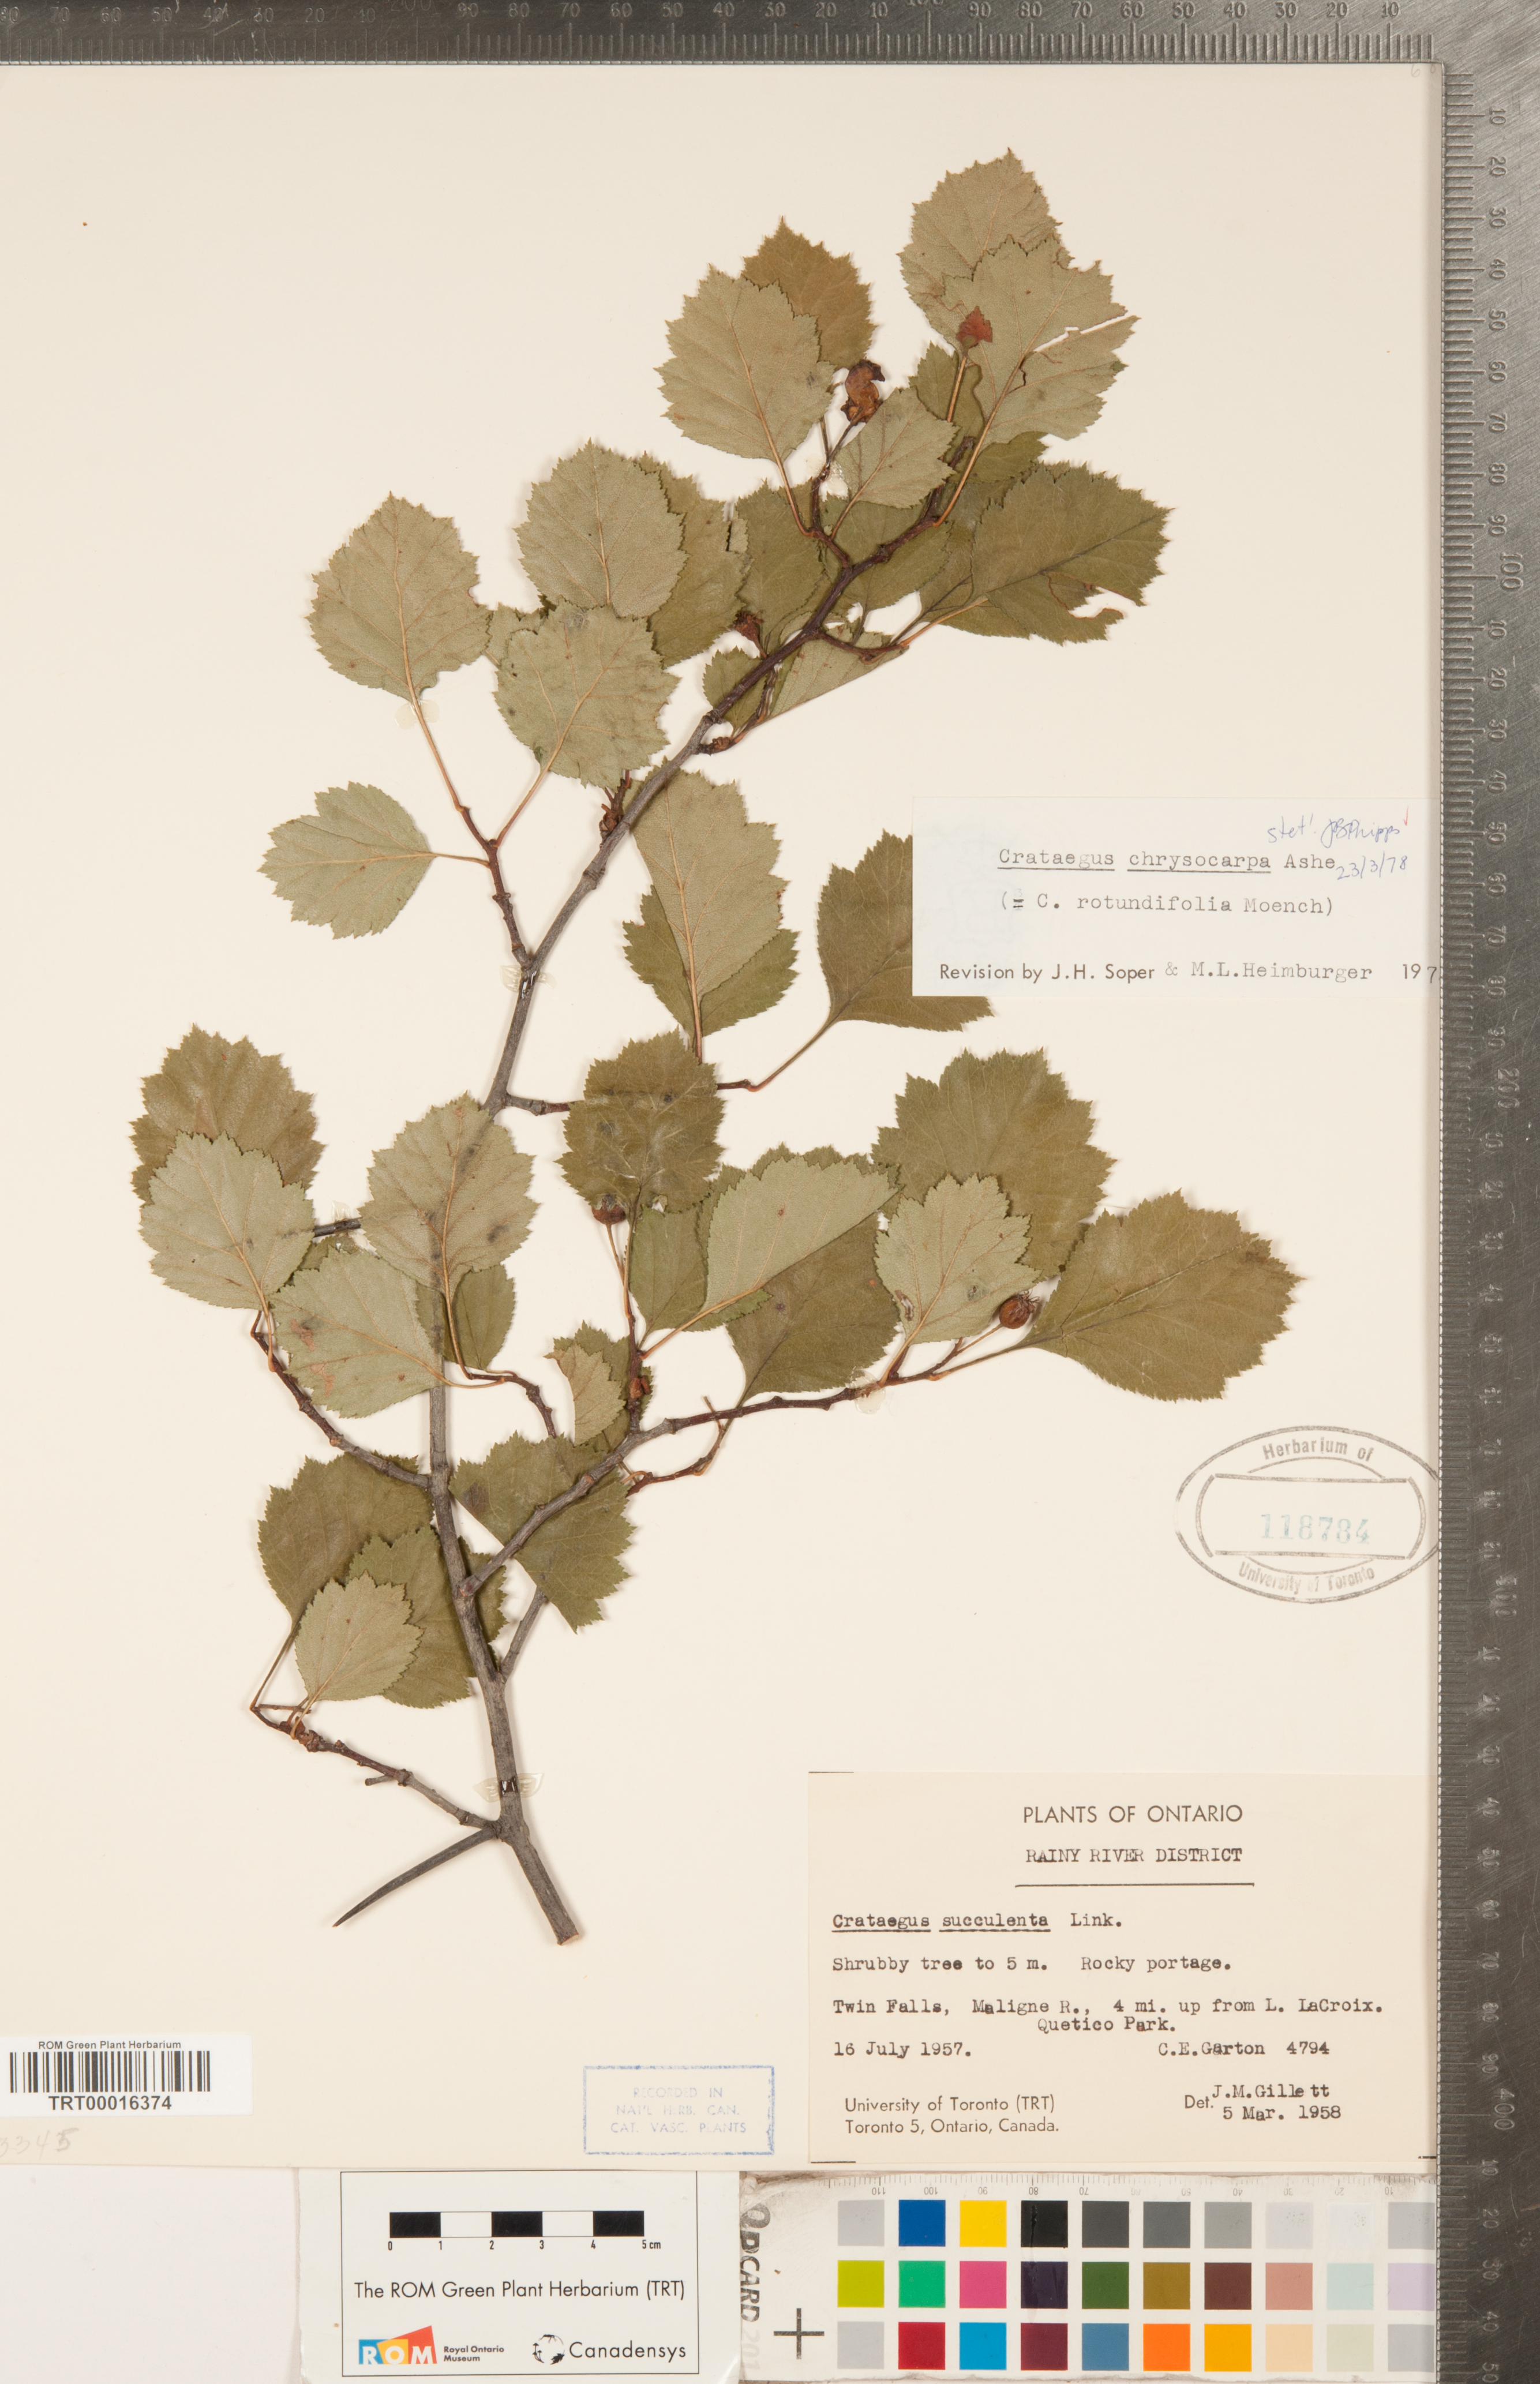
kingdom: Plantae
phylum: Tracheophyta
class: Magnoliopsida
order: Rosales
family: Rosaceae
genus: Crataegus
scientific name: Crataegus chrysocarpa
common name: Fire-berry hawthorn
